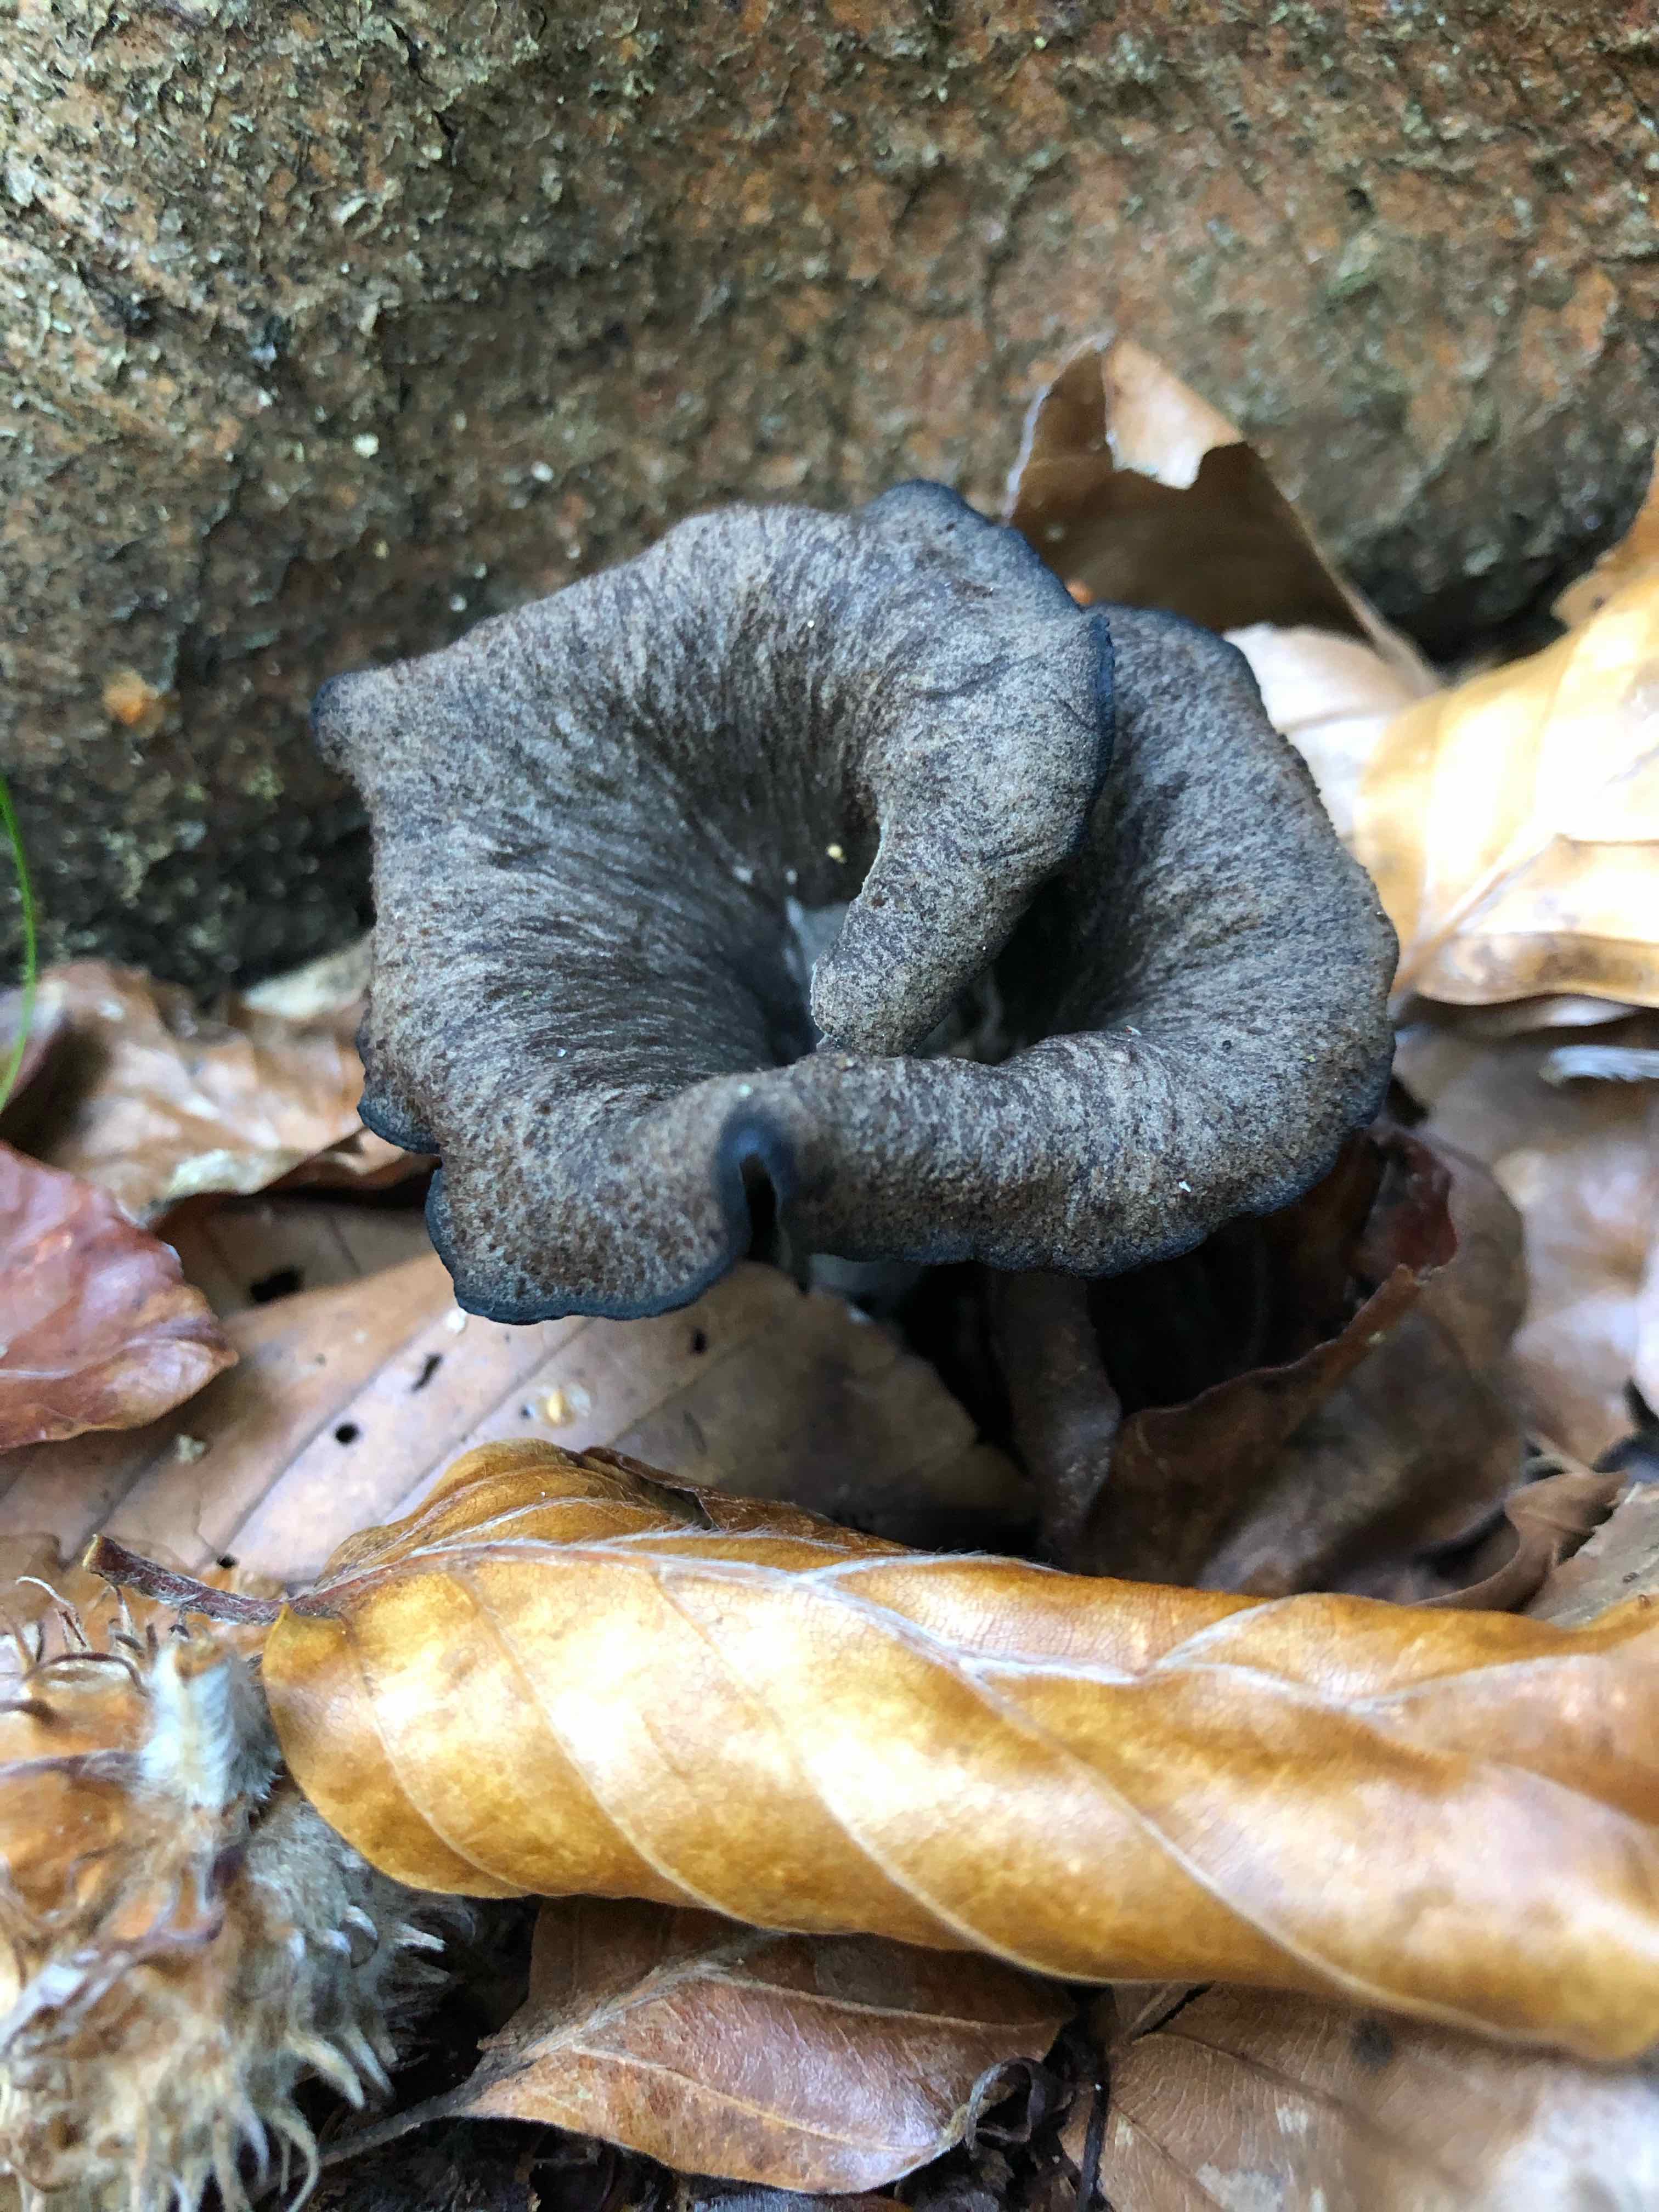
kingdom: Fungi
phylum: Basidiomycota
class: Agaricomycetes
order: Cantharellales
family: Hydnaceae
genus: Craterellus
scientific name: Craterellus cornucopioides
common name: trompetsvamp
